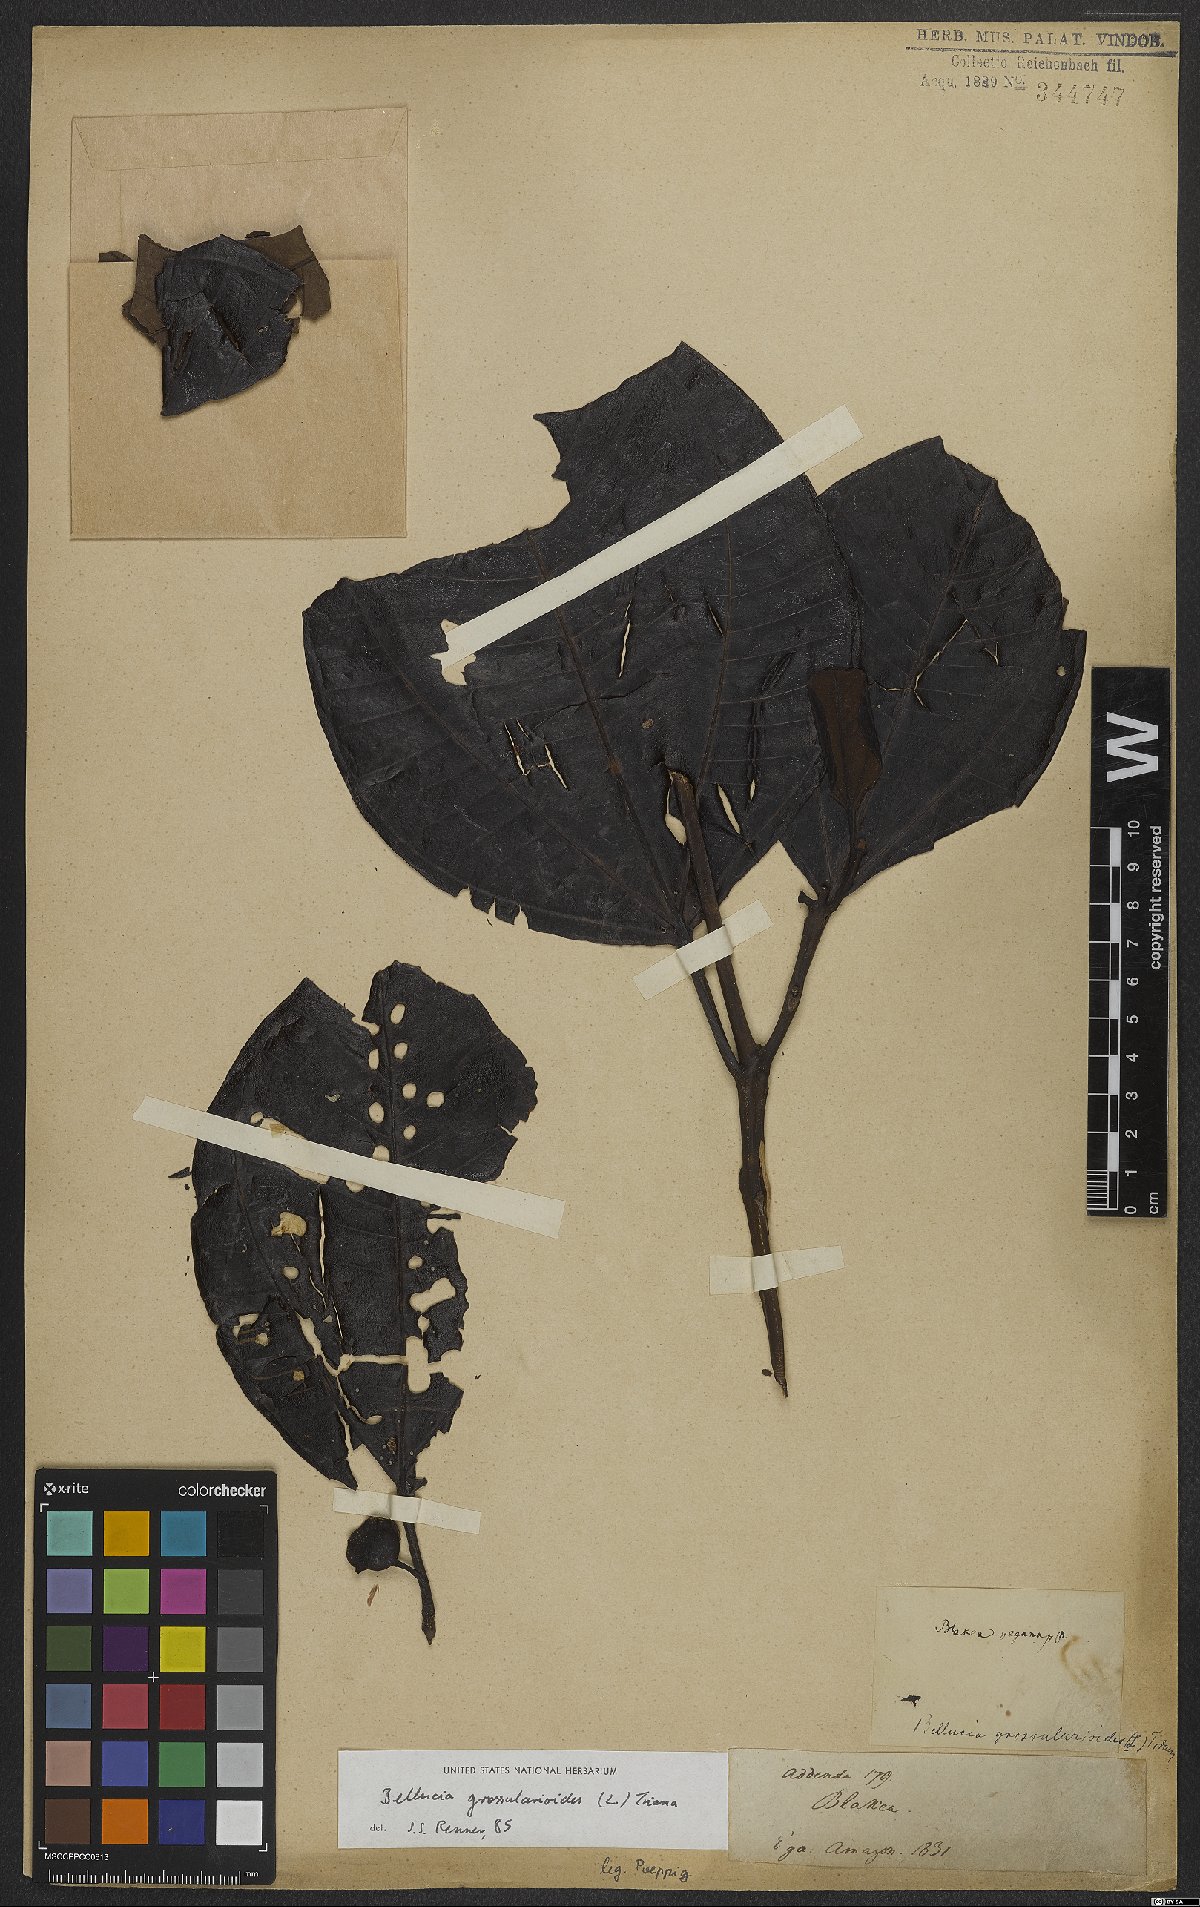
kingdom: Plantae
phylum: Tracheophyta
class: Magnoliopsida
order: Myrtales
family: Melastomataceae
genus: Bellucia
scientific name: Bellucia grossularioides
